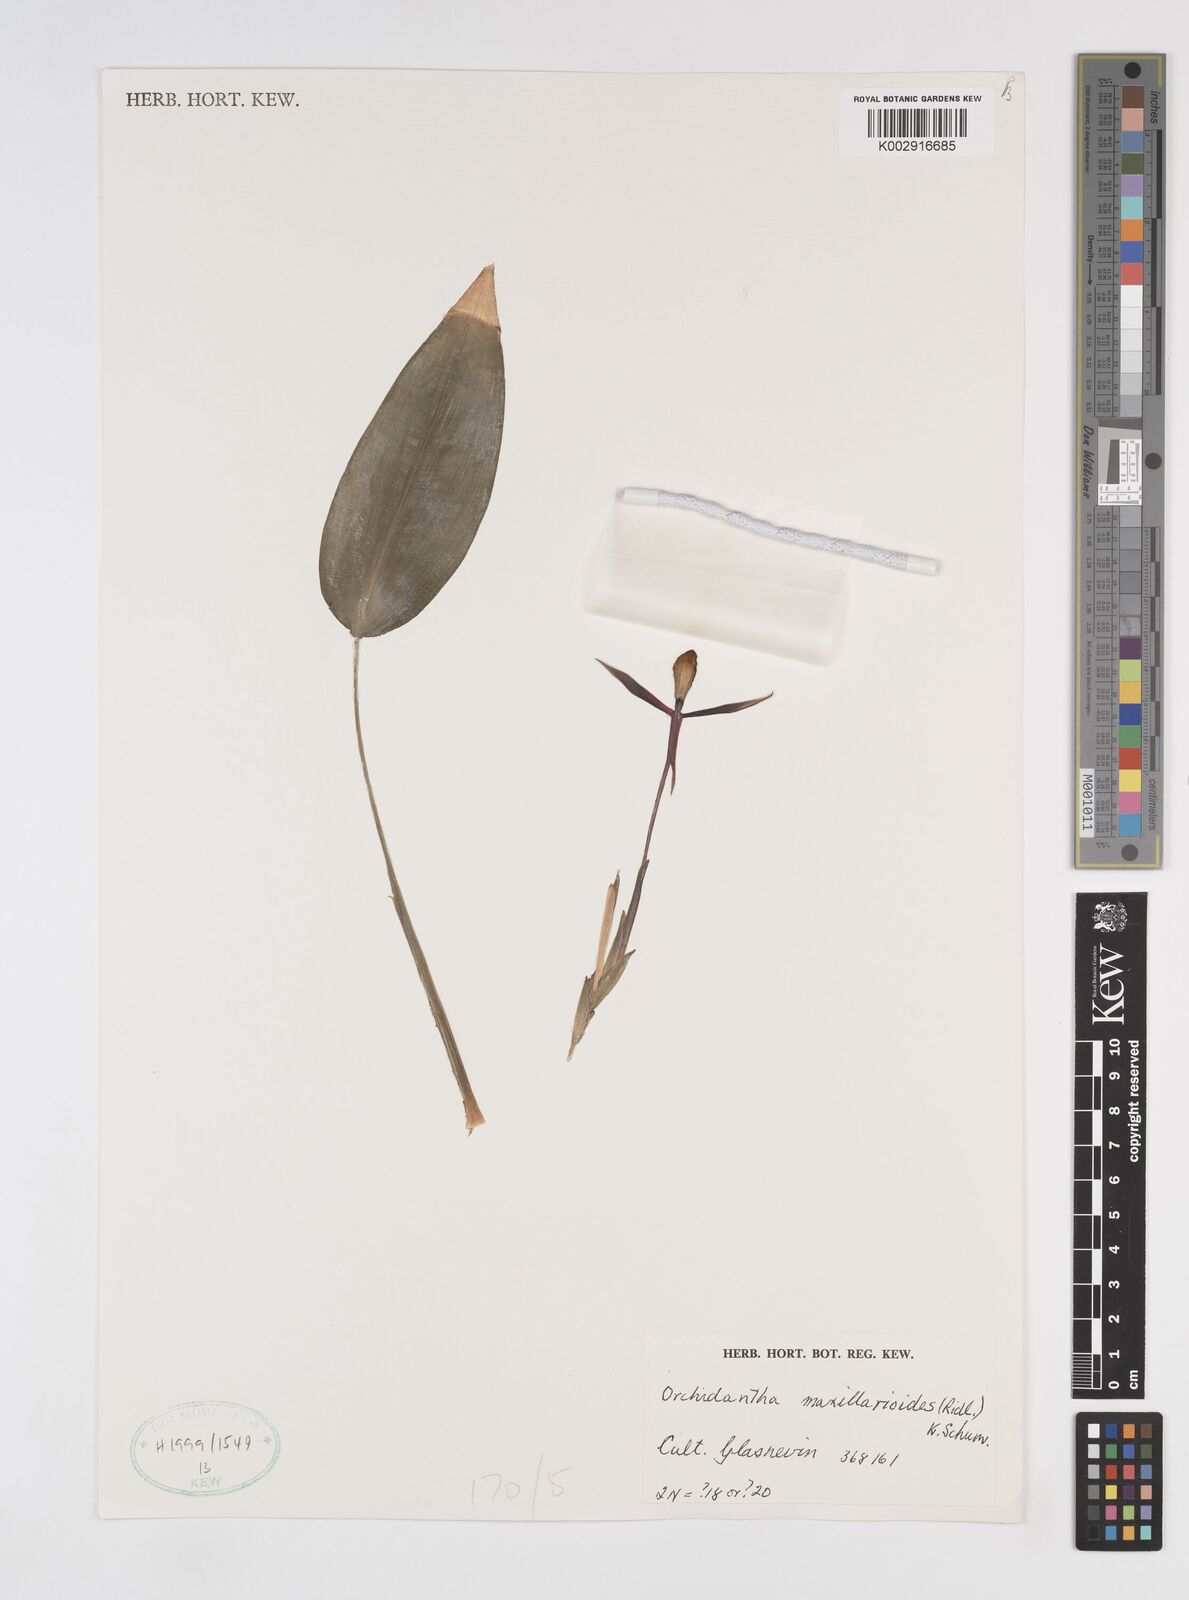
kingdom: Plantae
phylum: Tracheophyta
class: Liliopsida
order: Zingiberales
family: Lowiaceae
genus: Orchidantha
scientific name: Orchidantha maxillarioides
